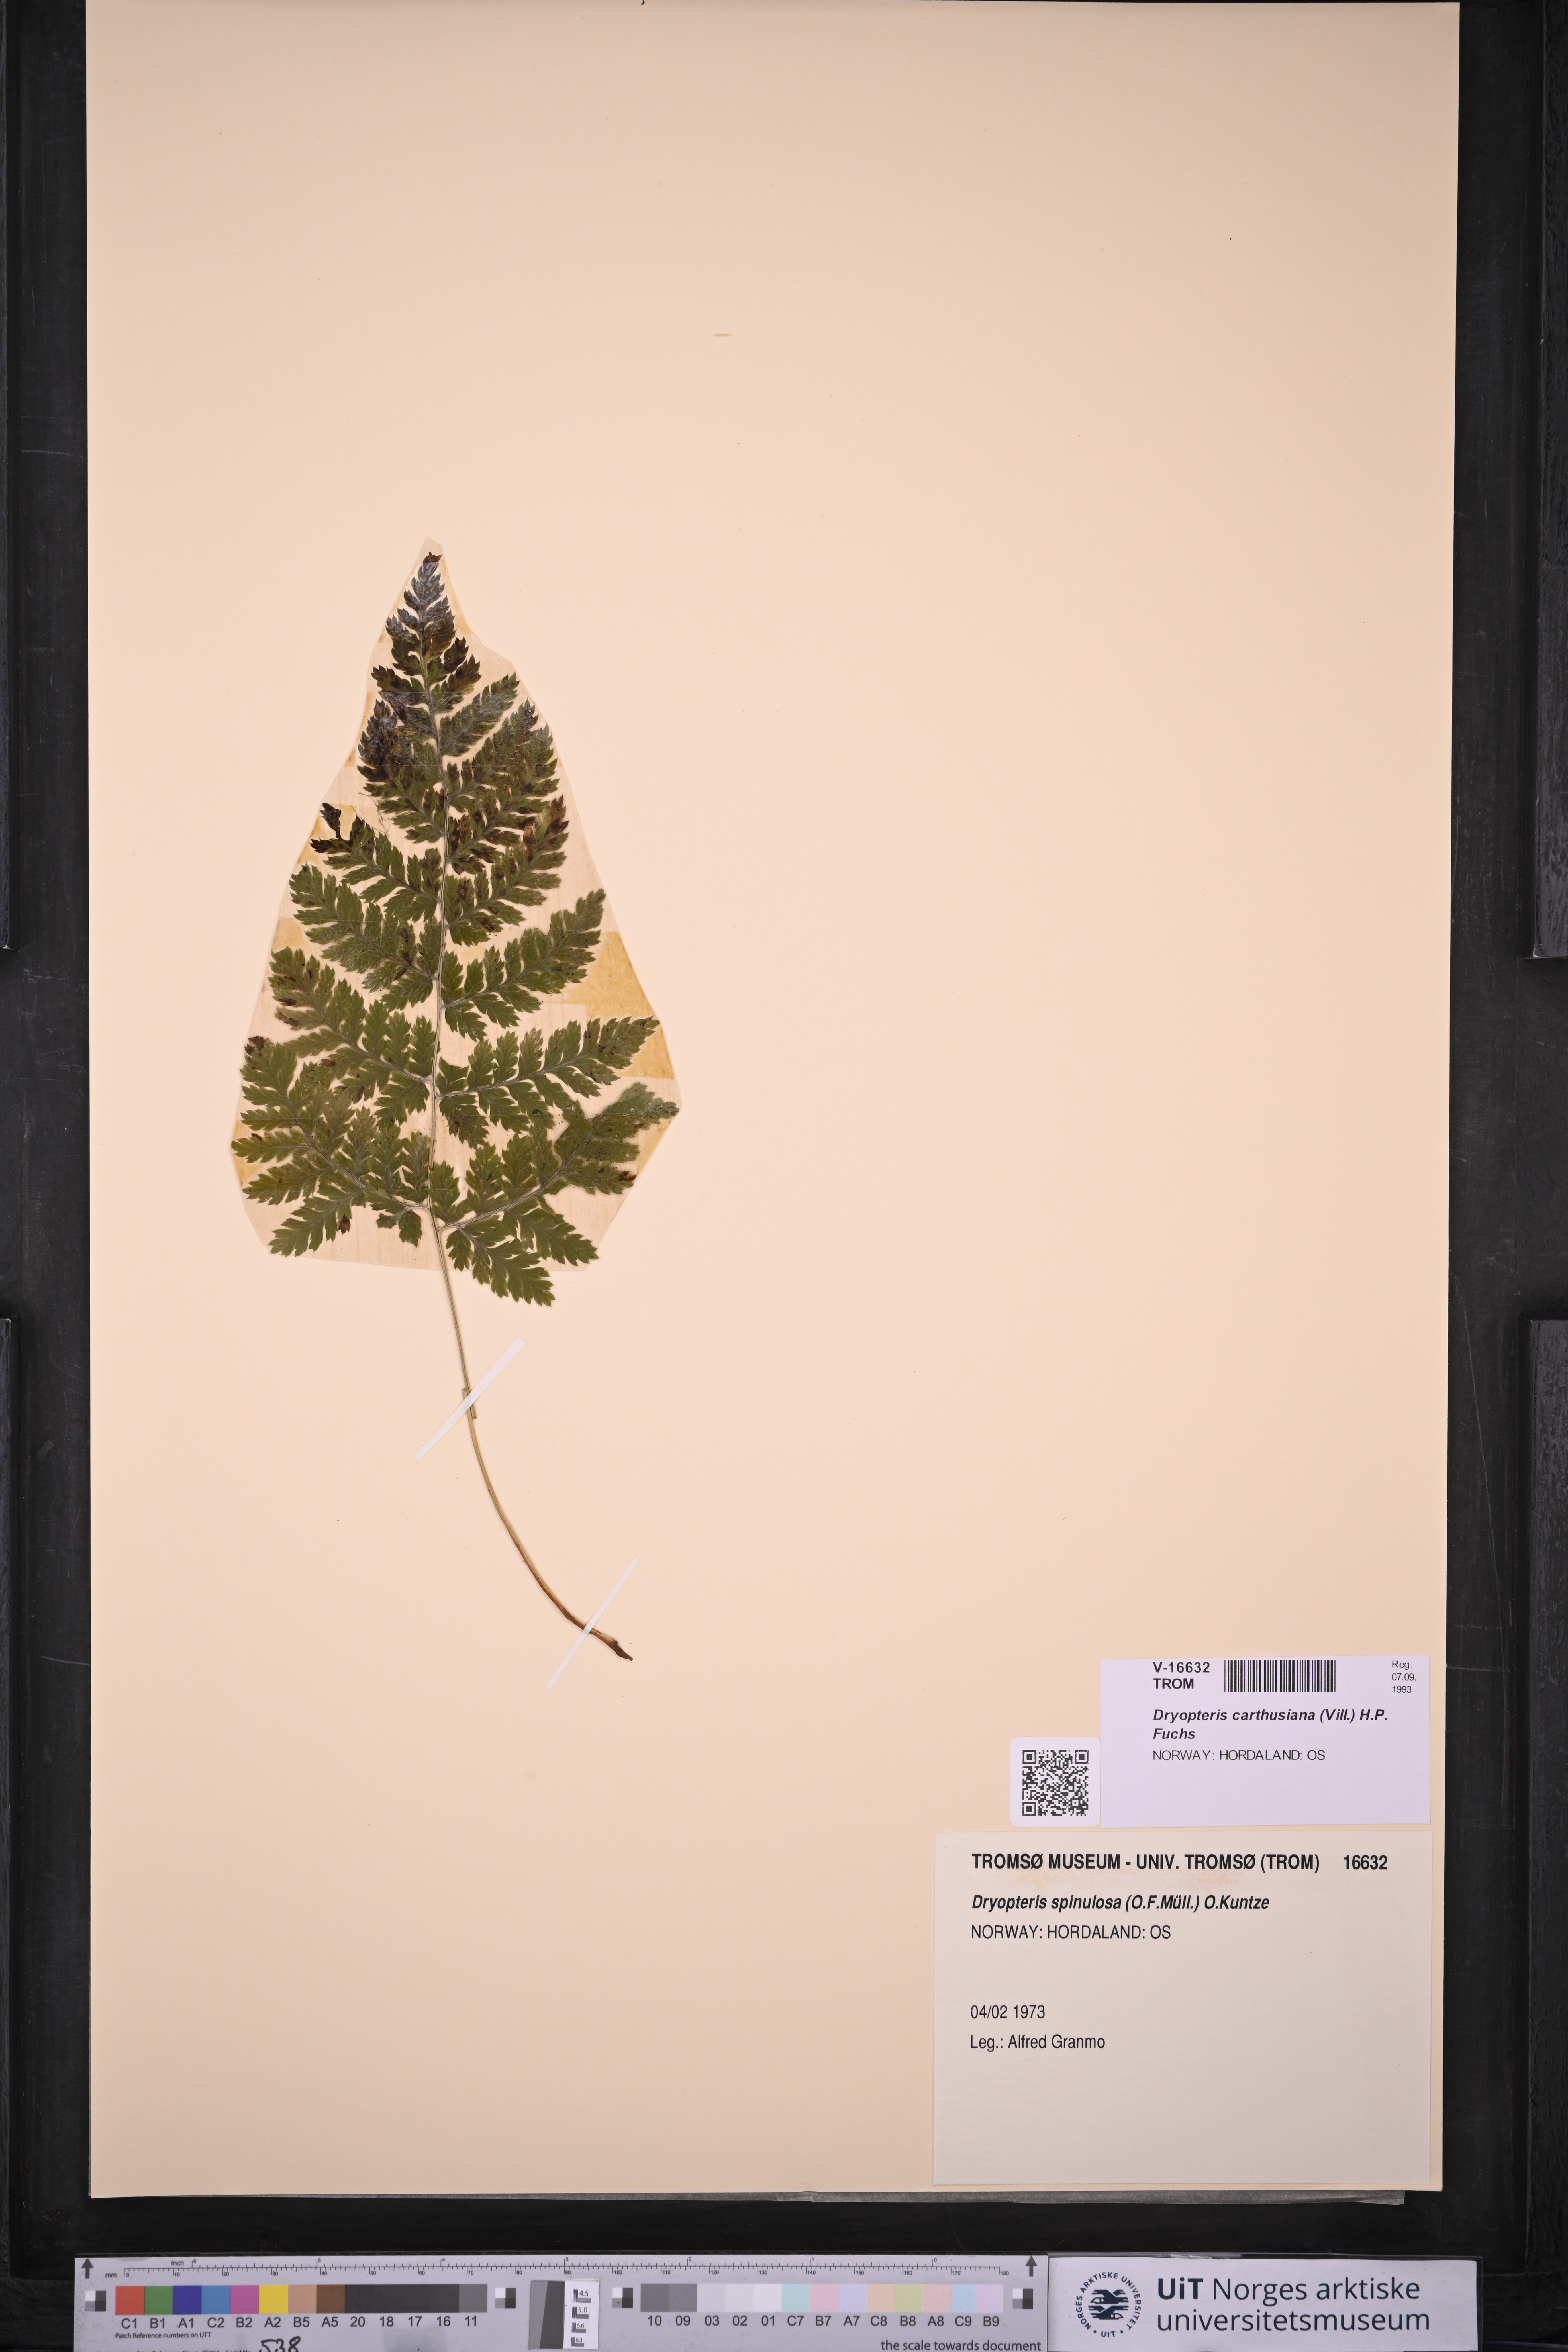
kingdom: Plantae
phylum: Tracheophyta
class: Polypodiopsida
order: Polypodiales
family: Dryopteridaceae
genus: Dryopteris
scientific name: Dryopteris carthusiana
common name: Narrow buckler-fern
